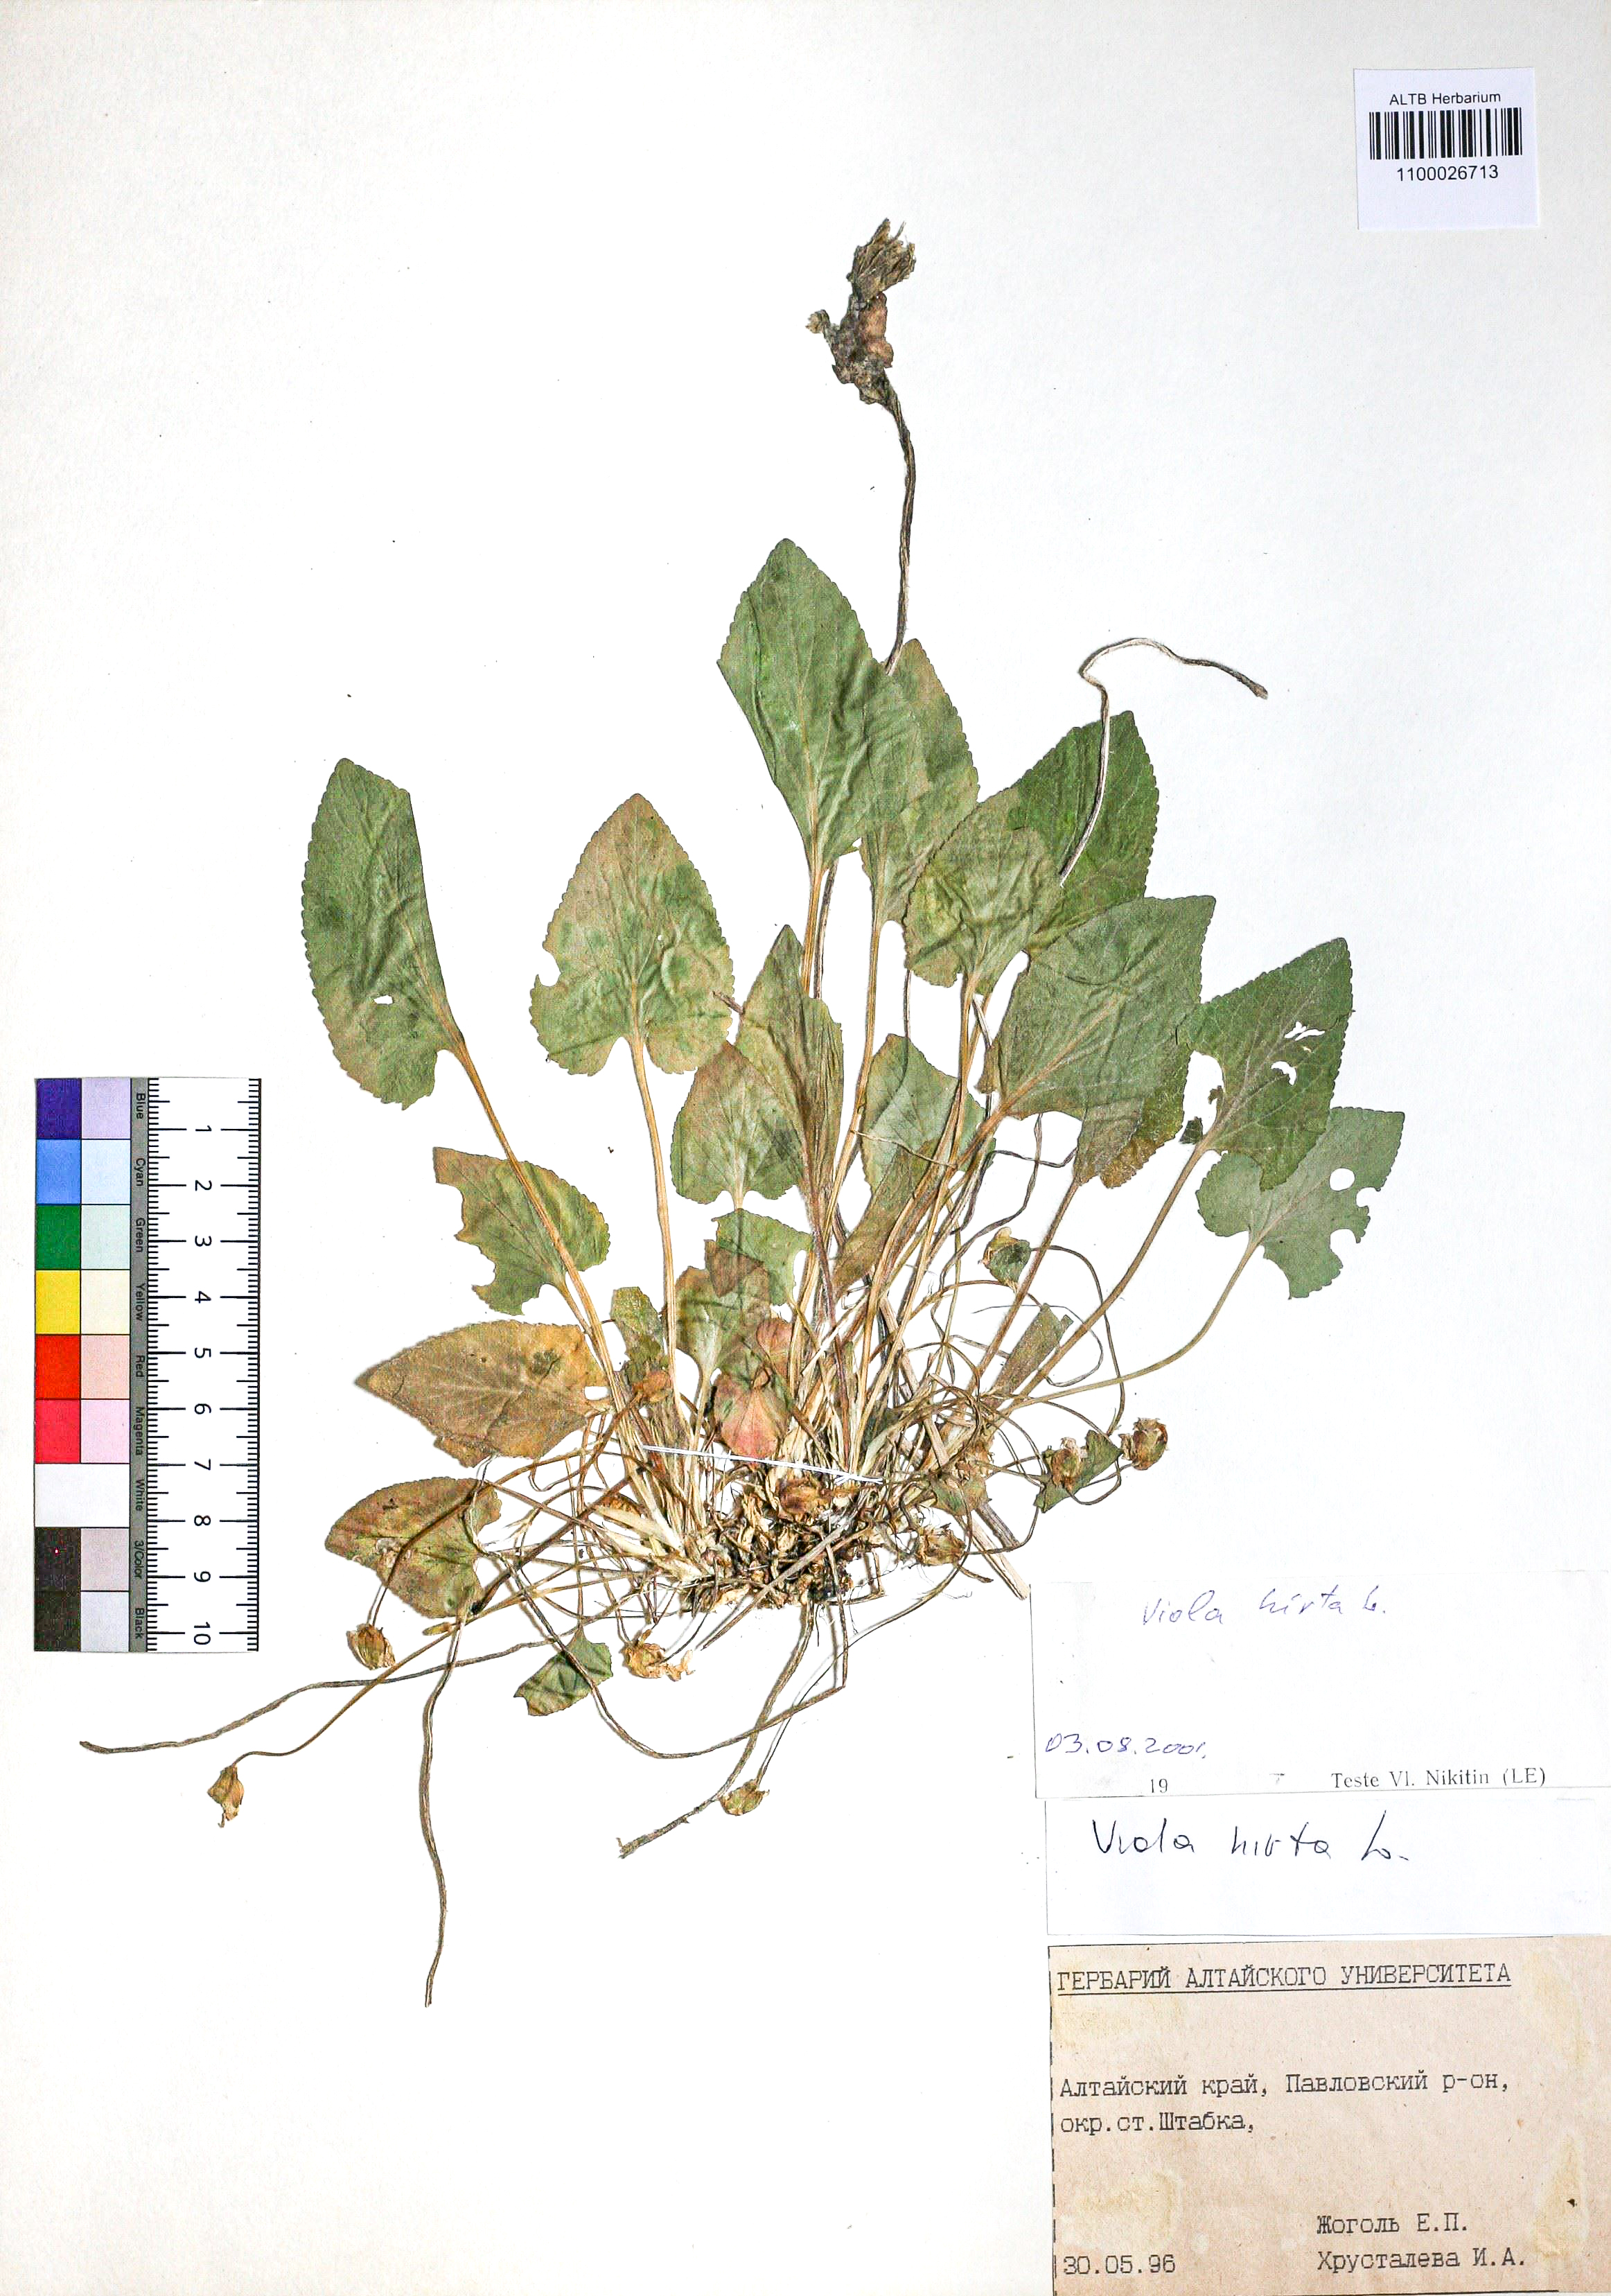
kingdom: Plantae
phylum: Tracheophyta
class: Magnoliopsida
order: Malpighiales
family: Violaceae
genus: Viola
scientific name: Viola hirta
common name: Hairy violet
